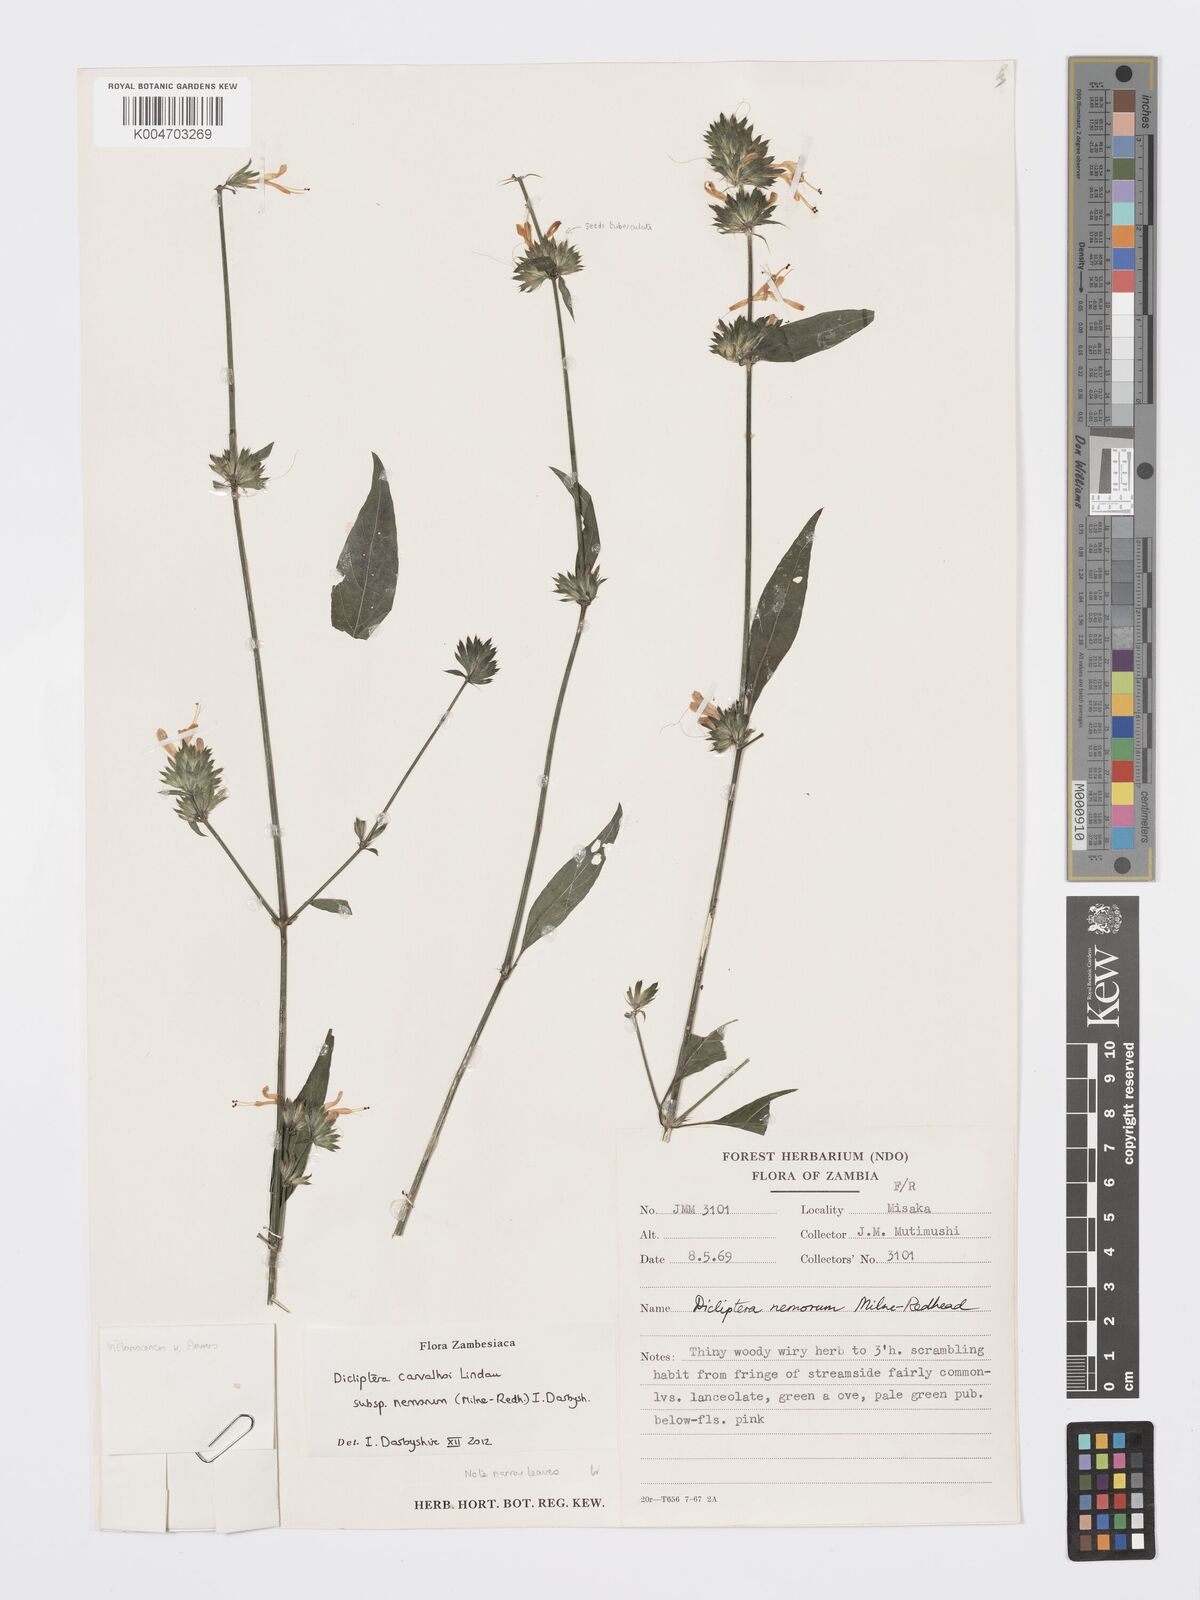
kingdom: Plantae
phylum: Tracheophyta
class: Magnoliopsida
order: Lamiales
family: Acanthaceae
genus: Dicliptera
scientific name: Dicliptera carvalhoi
